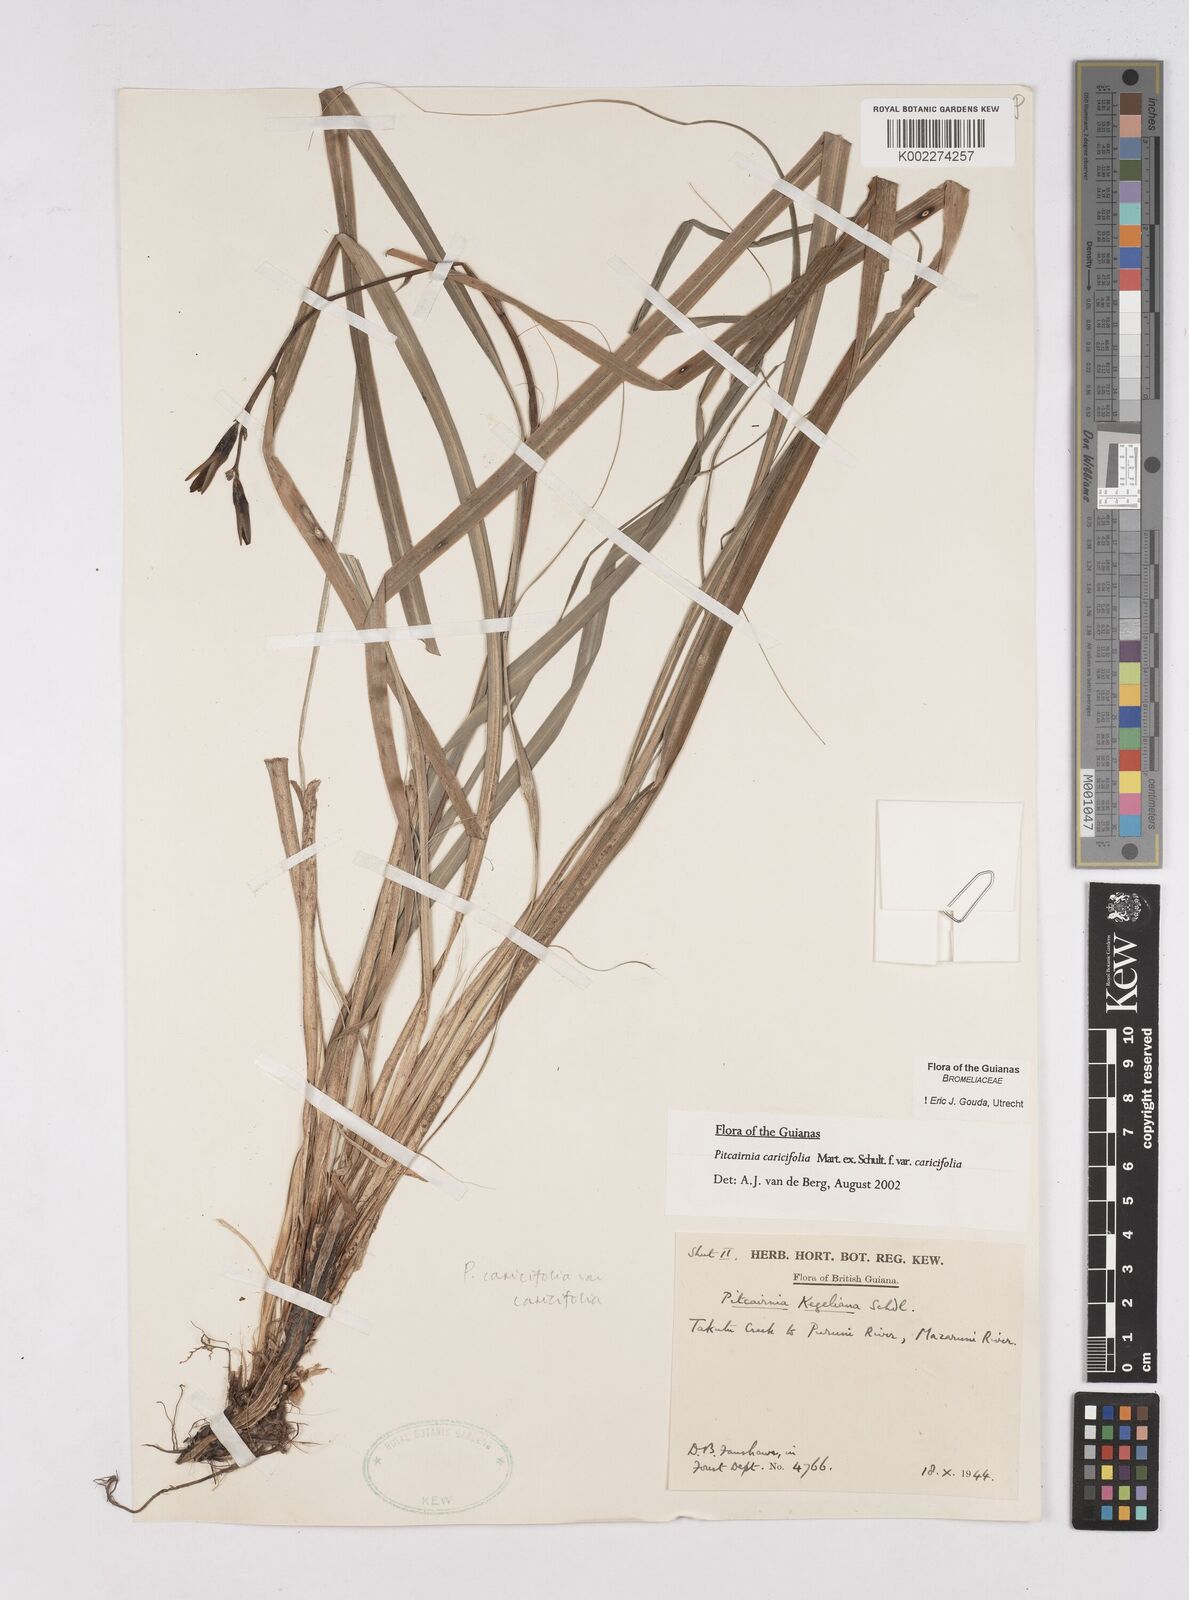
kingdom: Plantae
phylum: Tracheophyta
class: Liliopsida
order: Poales
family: Bromeliaceae
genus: Pitcairnia
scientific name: Pitcairnia caricifolia
